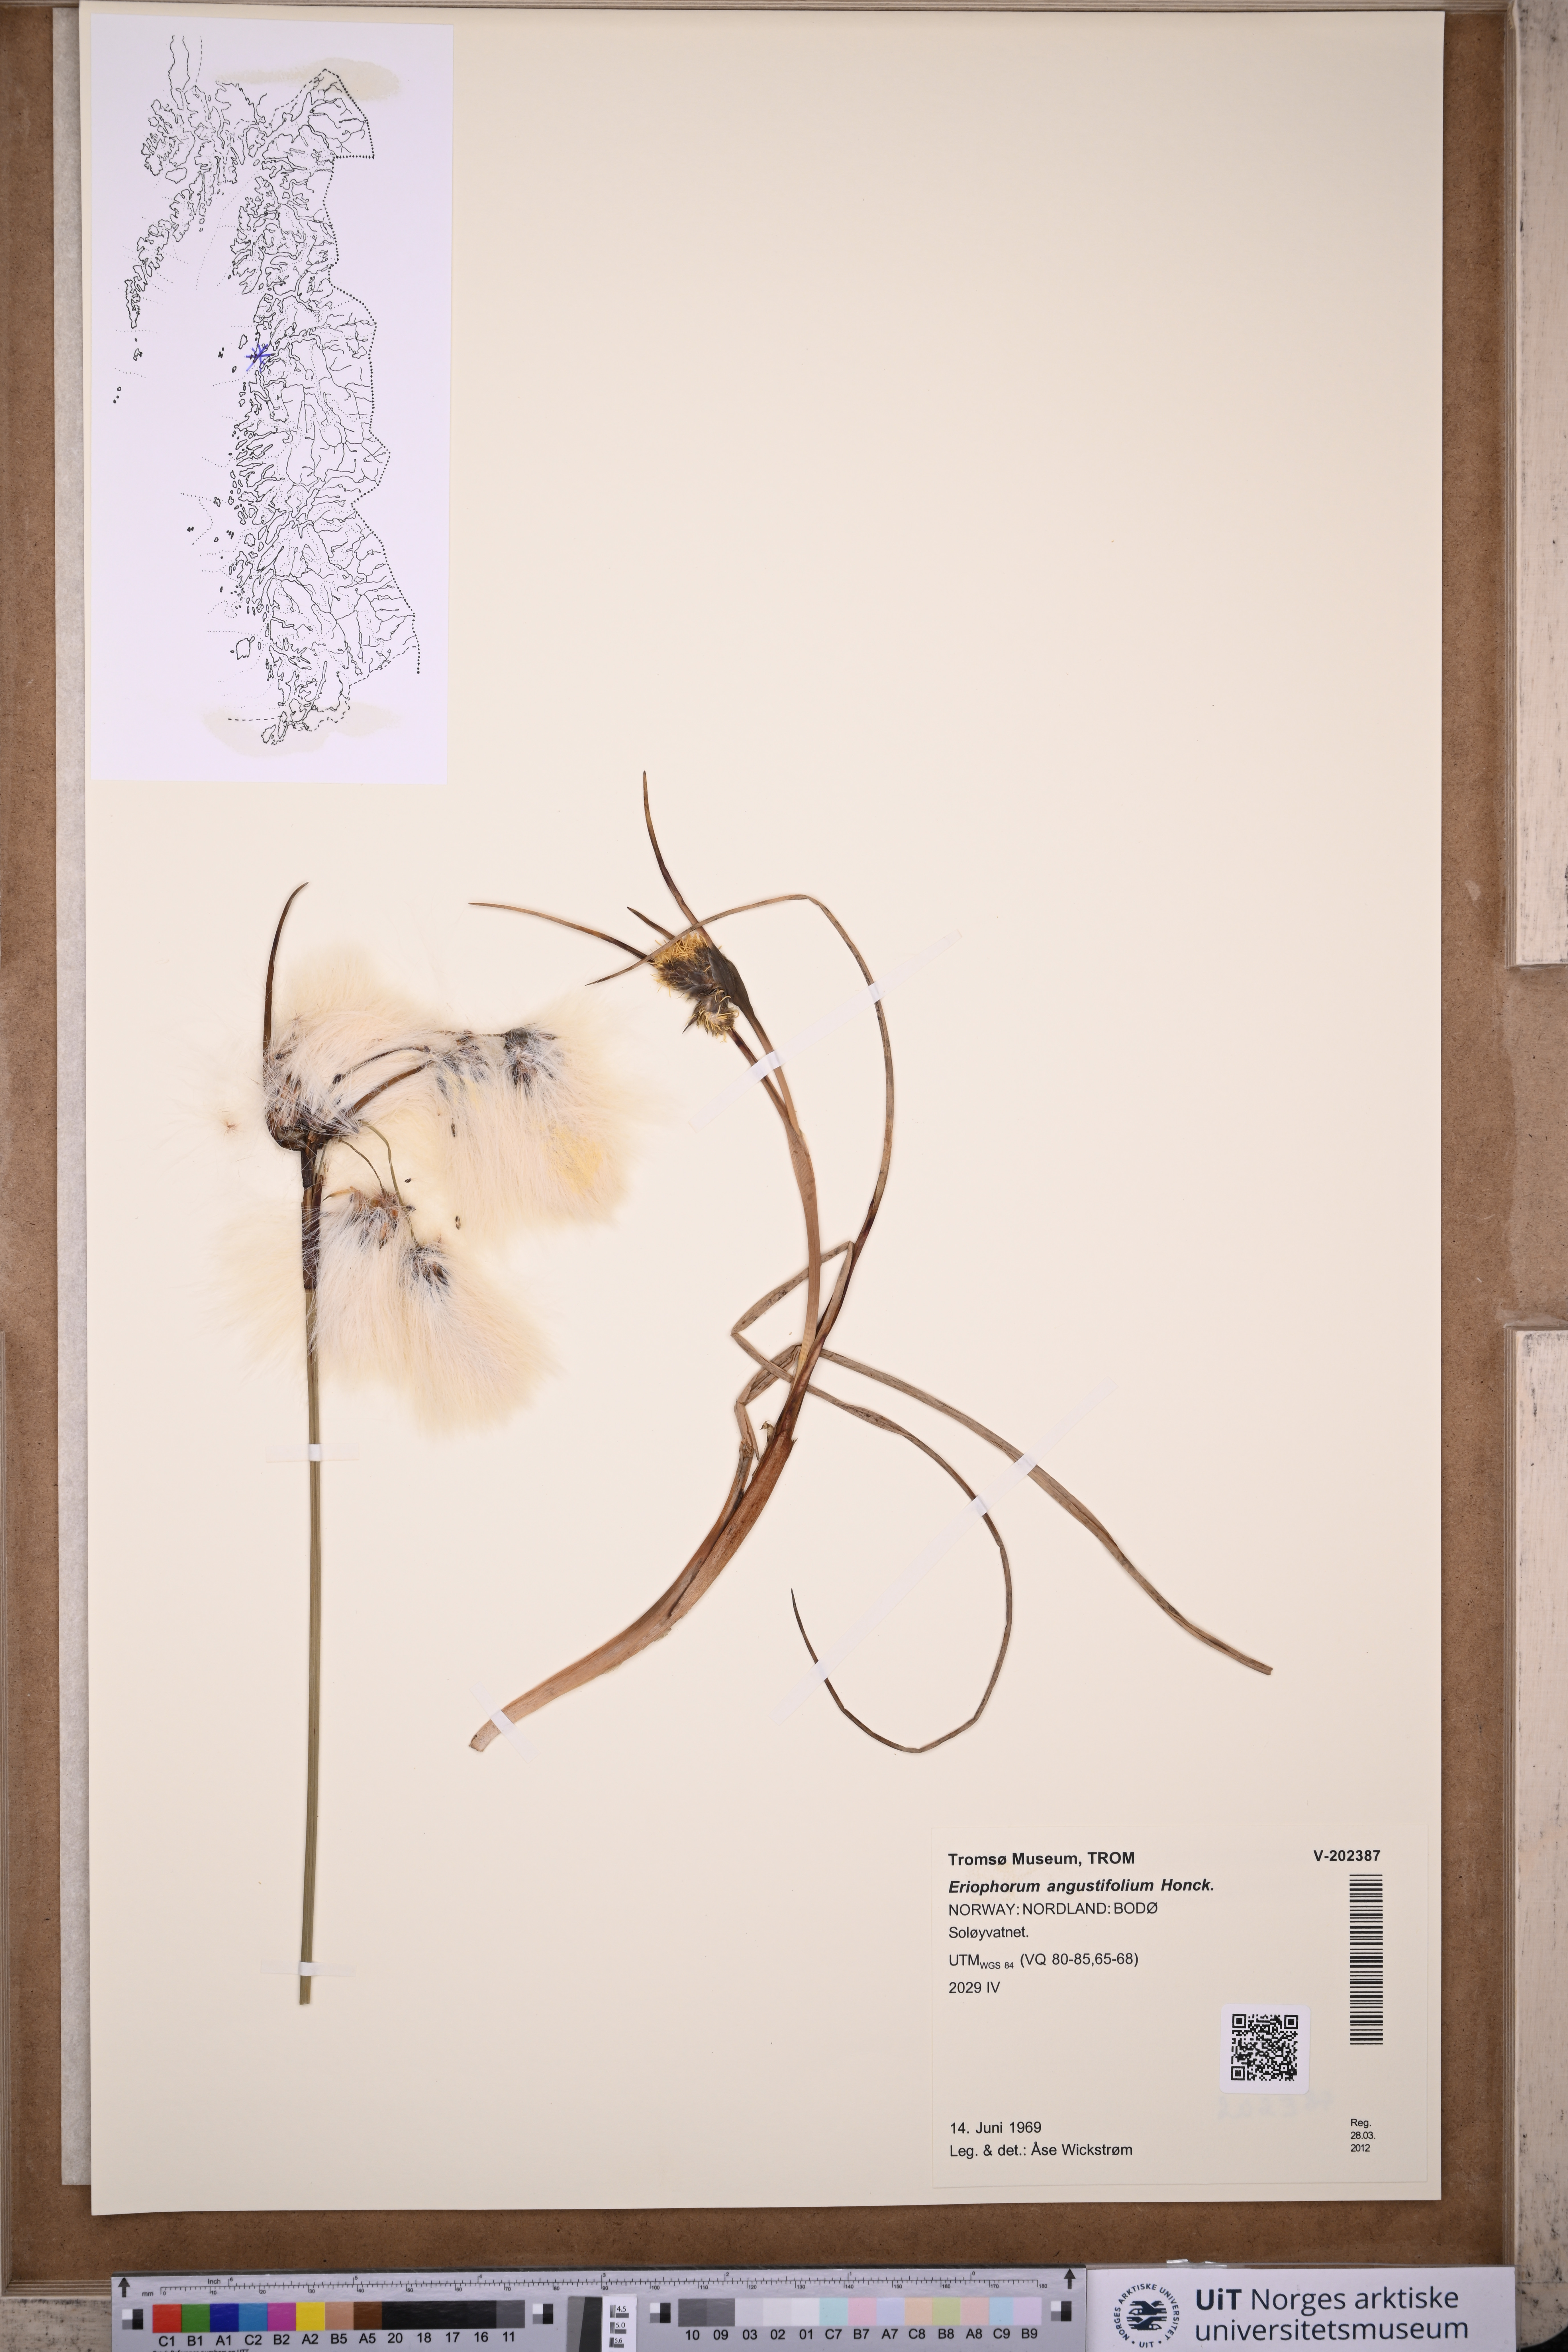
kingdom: Plantae
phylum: Tracheophyta
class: Liliopsida
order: Poales
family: Cyperaceae
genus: Eriophorum
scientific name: Eriophorum angustifolium
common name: Common cottongrass
